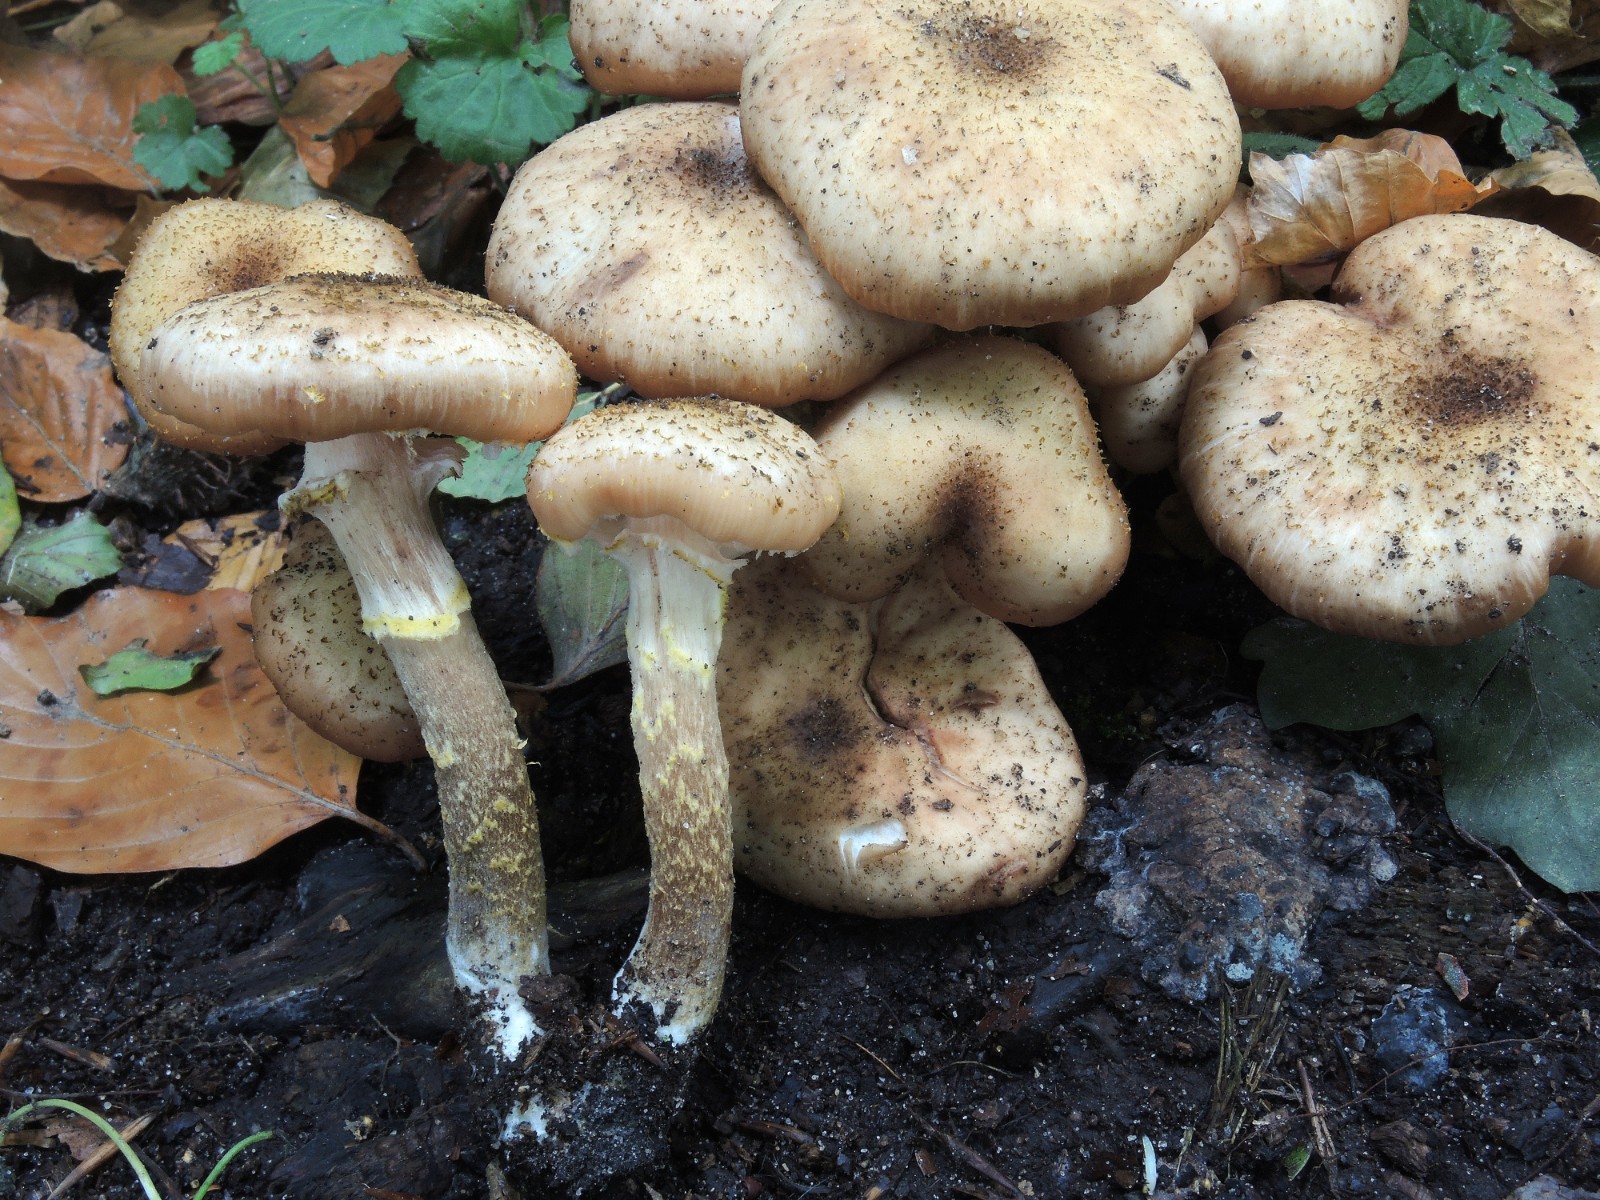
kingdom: Fungi
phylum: Basidiomycota
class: Agaricomycetes
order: Agaricales
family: Physalacriaceae
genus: Armillaria
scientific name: Armillaria lutea
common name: køllestokket honningsvamp
